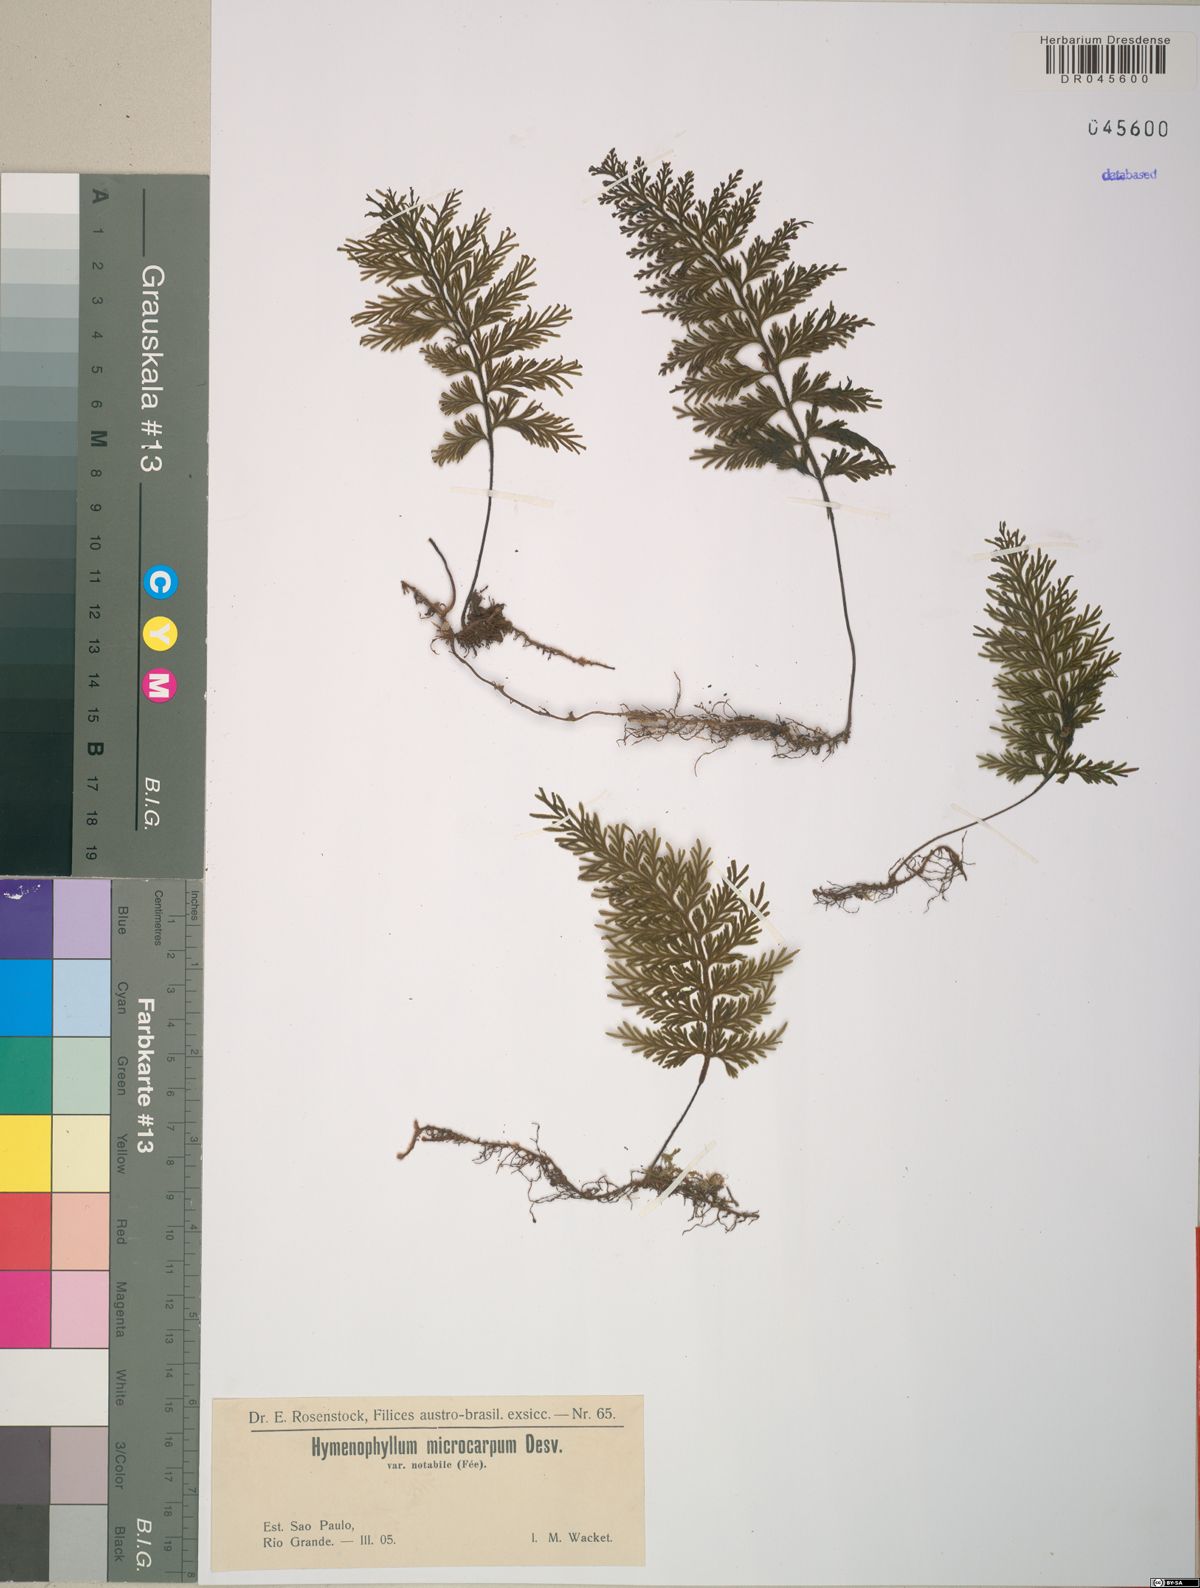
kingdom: Plantae
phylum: Tracheophyta
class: Polypodiopsida
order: Hymenophyllales
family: Hymenophyllaceae
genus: Hymenophyllum
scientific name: Hymenophyllum microcarpum
